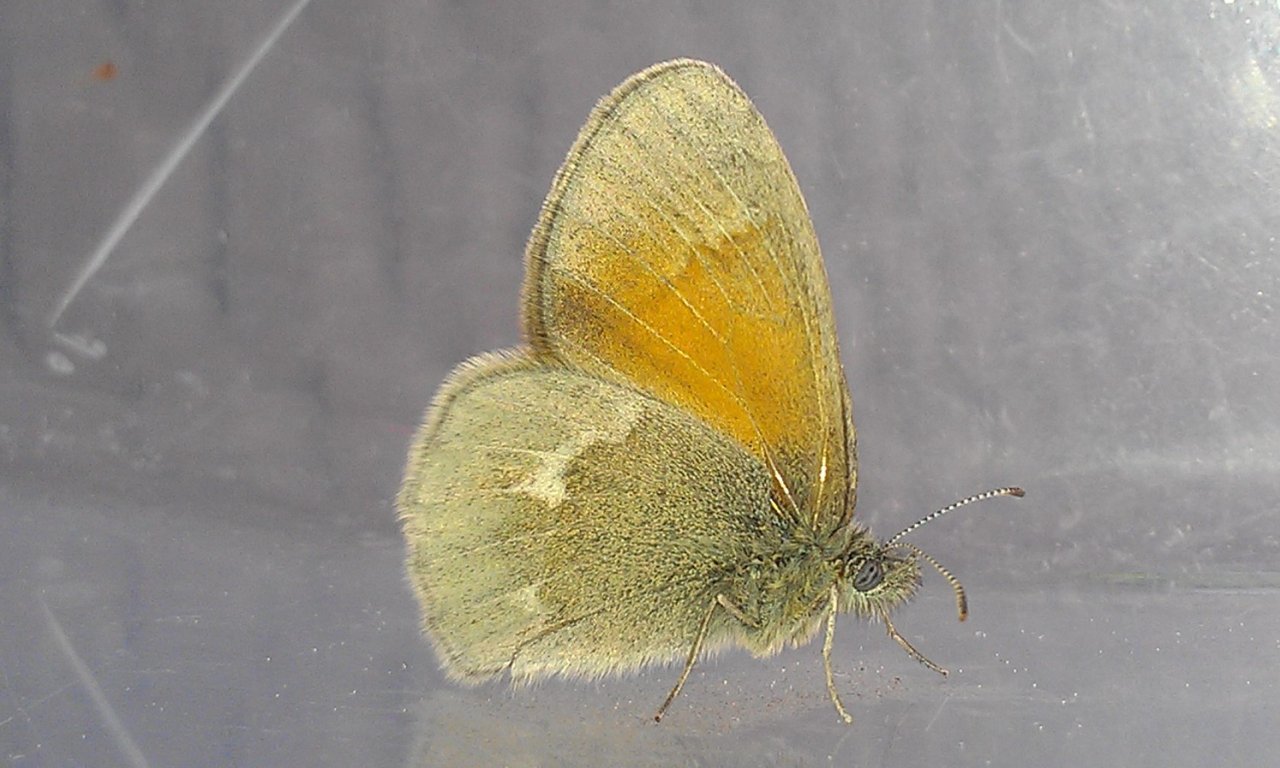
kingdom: Animalia
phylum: Arthropoda
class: Insecta
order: Lepidoptera
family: Nymphalidae
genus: Coenonympha
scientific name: Coenonympha tullia
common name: Large Heath
